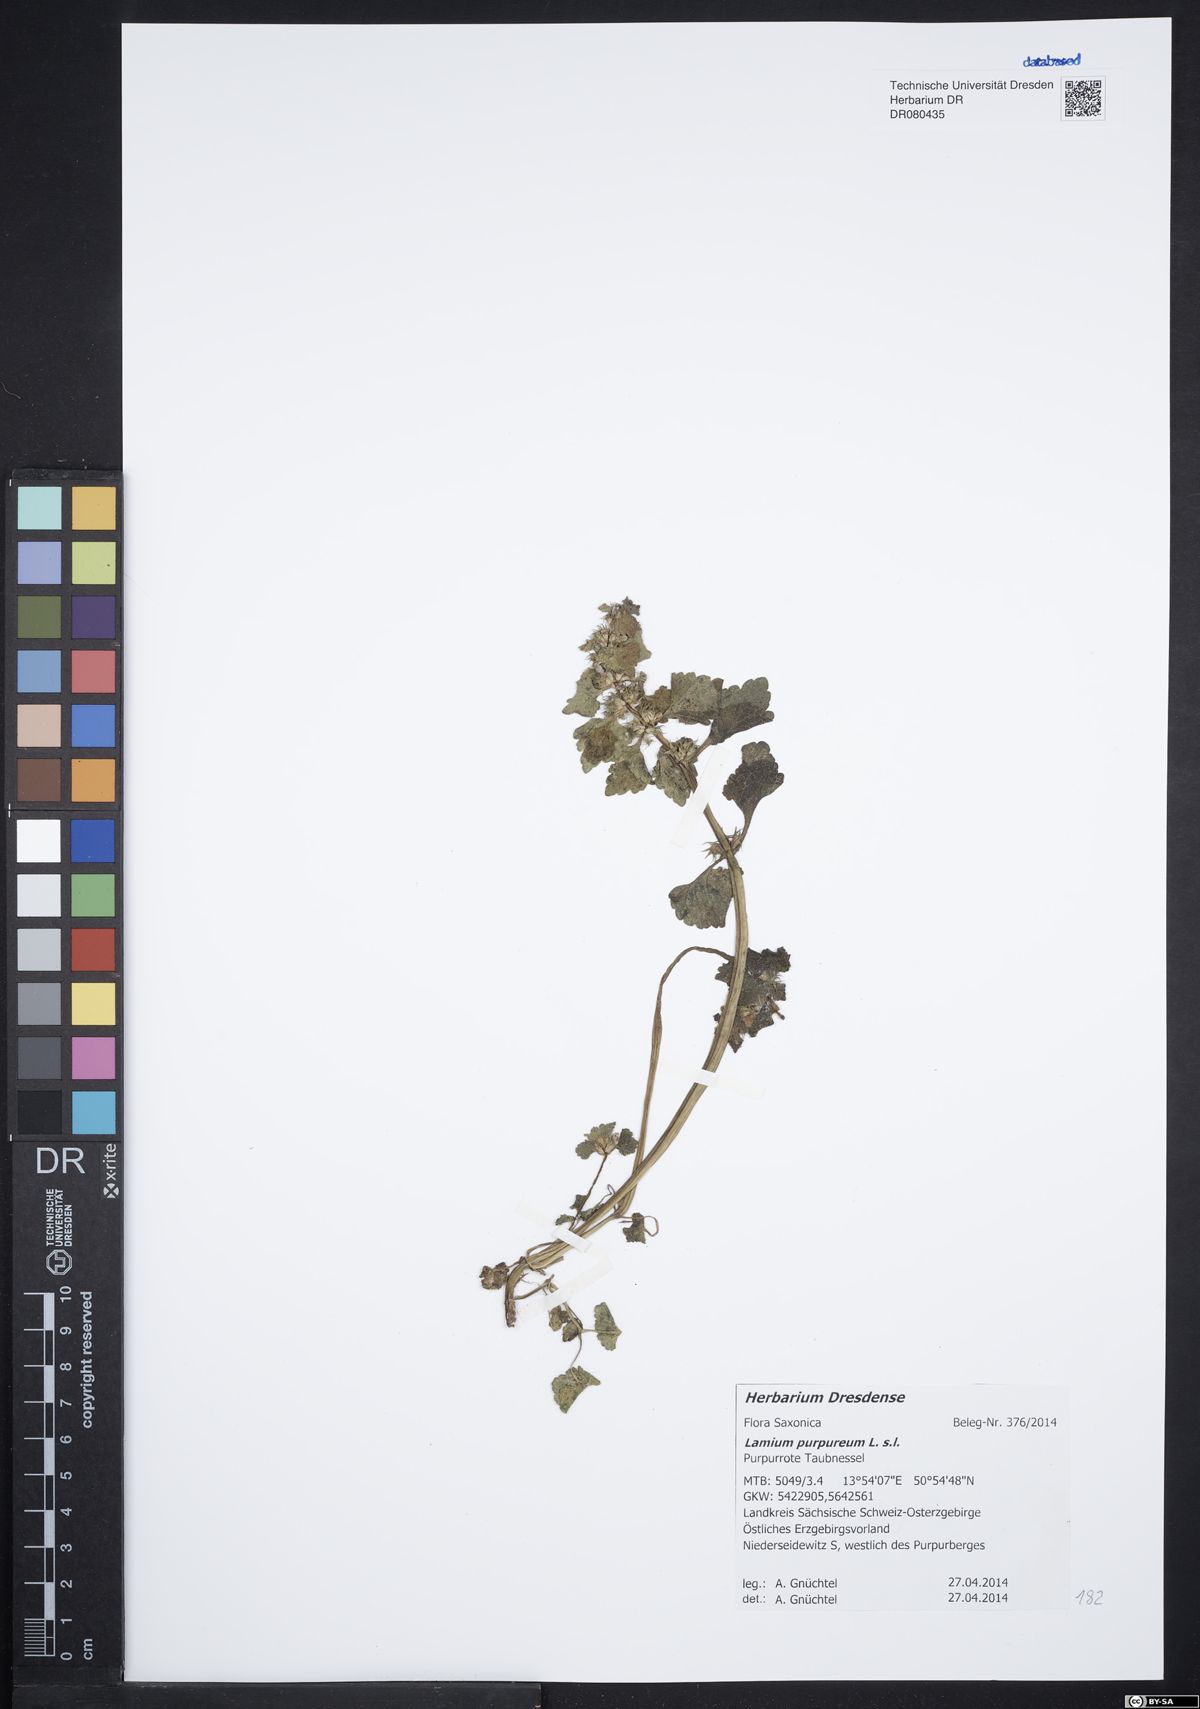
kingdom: Plantae
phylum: Tracheophyta
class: Magnoliopsida
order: Lamiales
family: Lamiaceae
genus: Lamium
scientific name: Lamium purpureum
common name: Red dead-nettle
